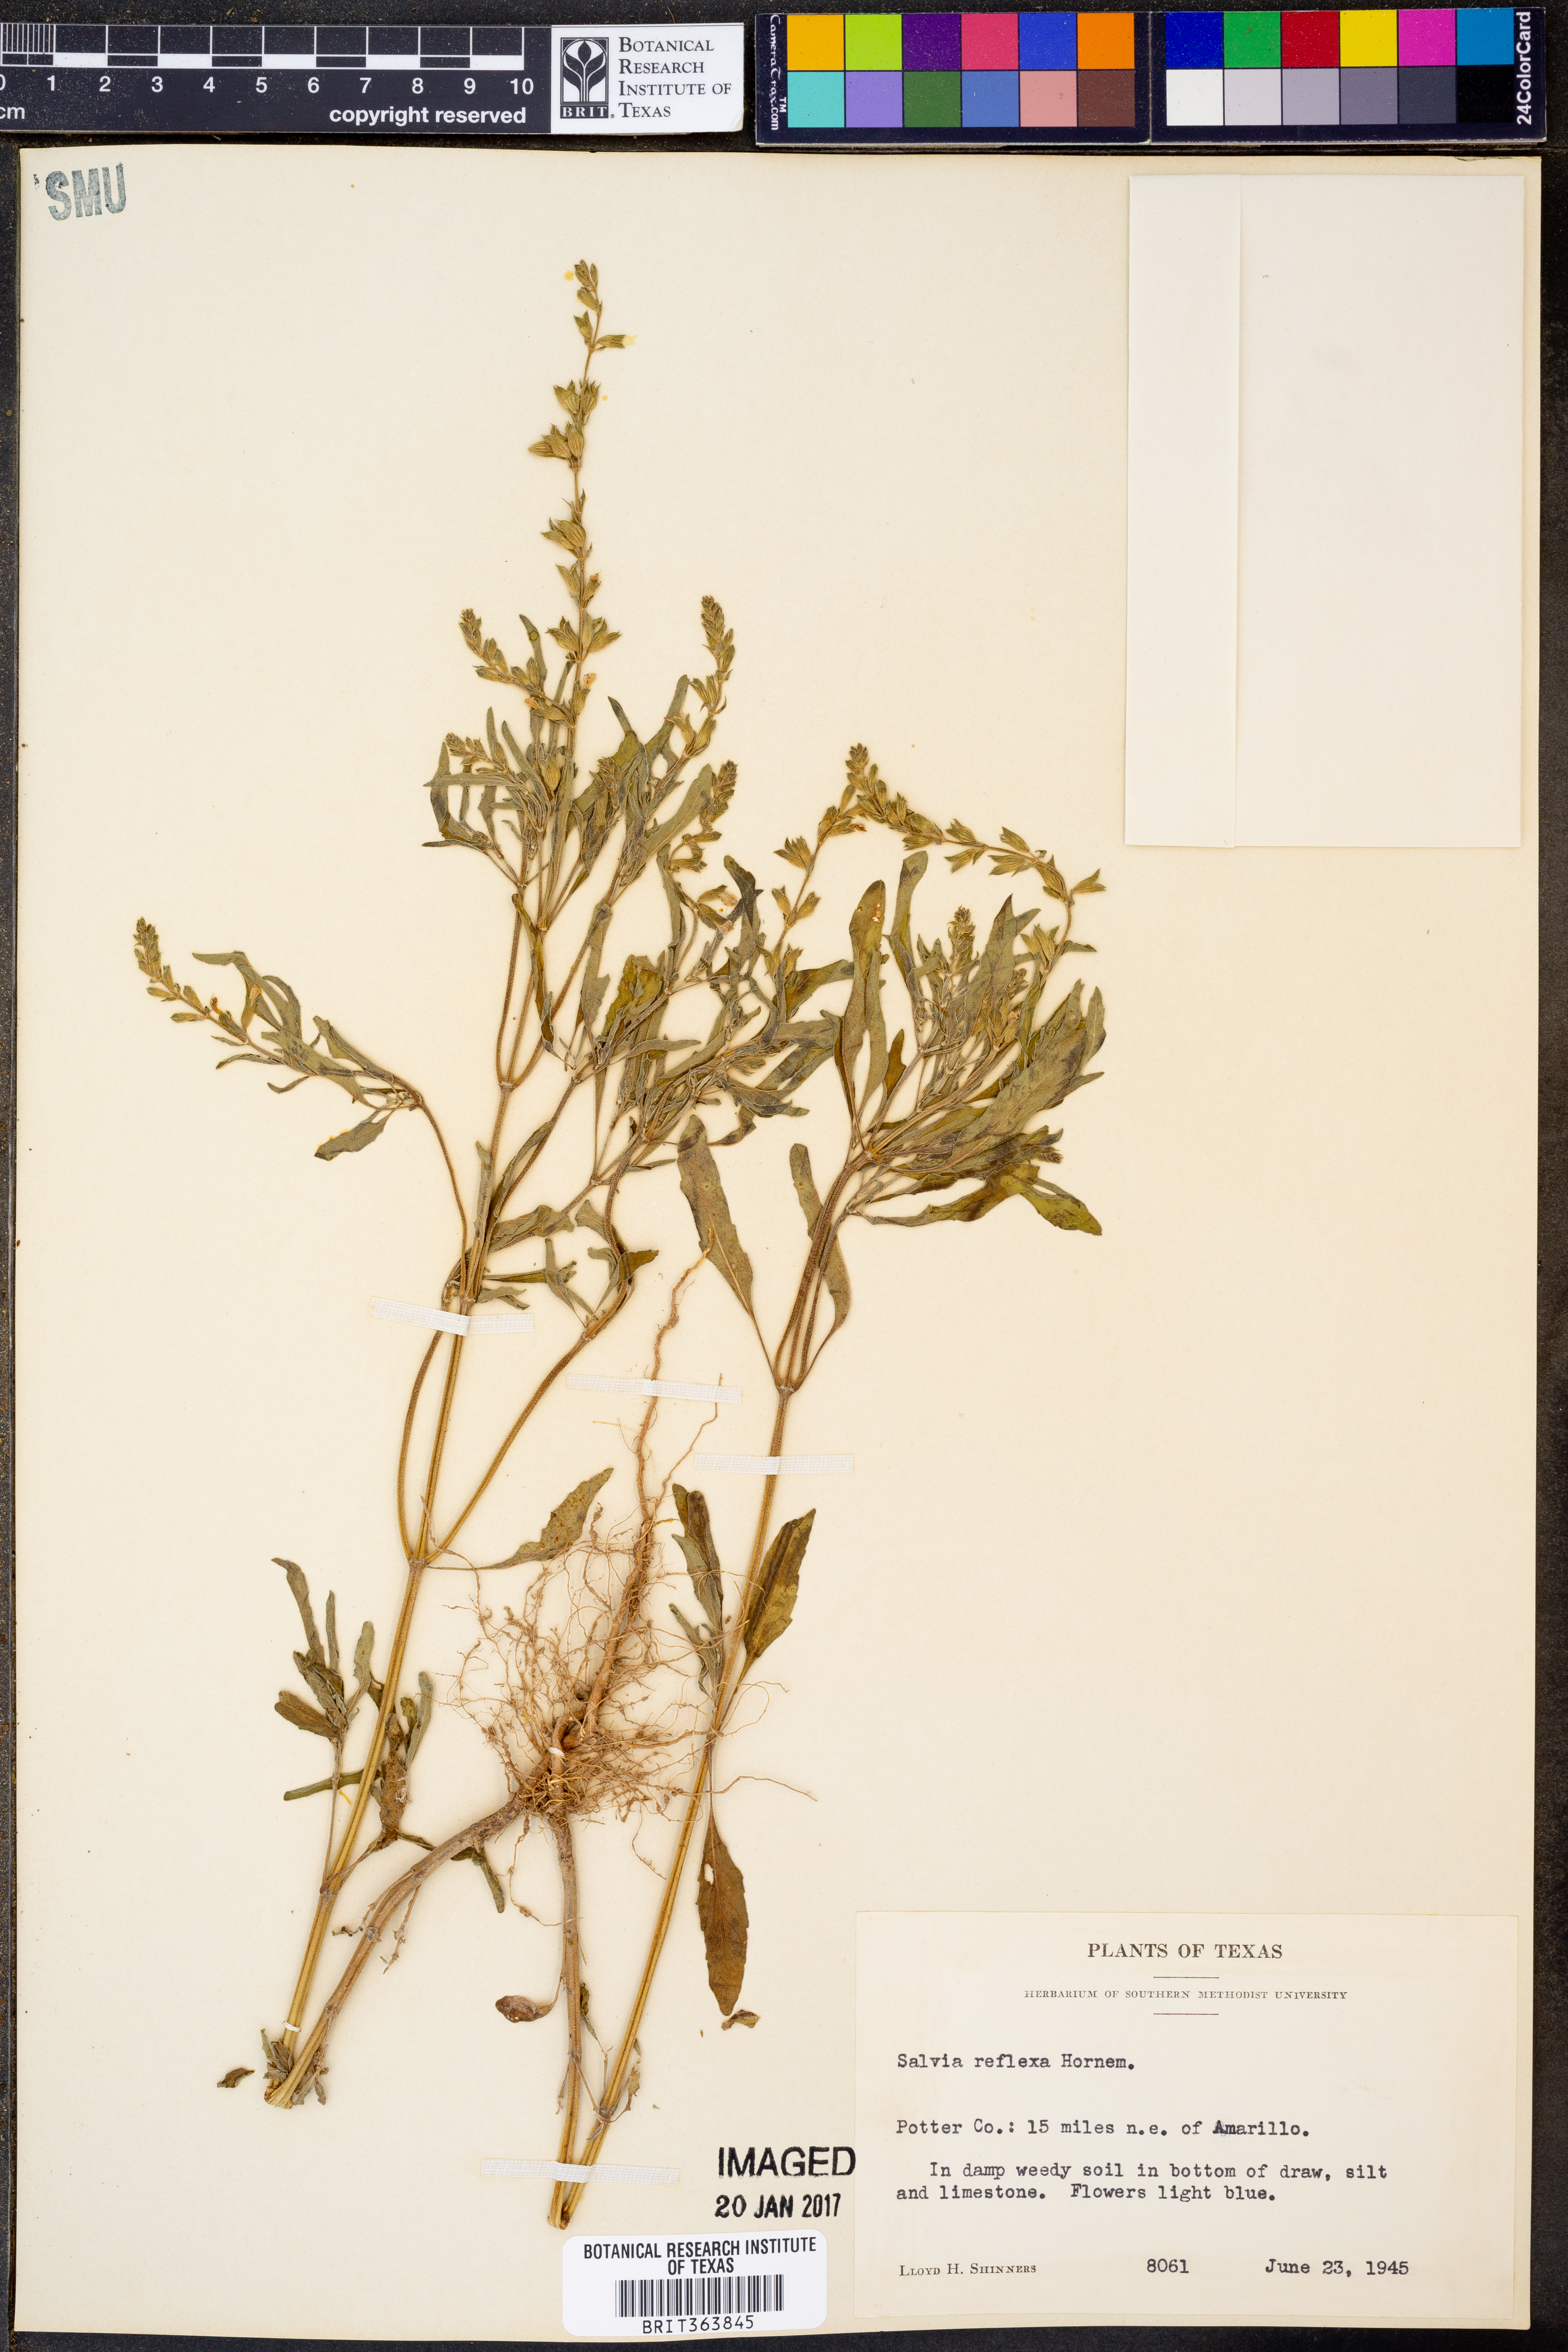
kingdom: Plantae
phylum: Tracheophyta
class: Magnoliopsida
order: Lamiales
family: Lamiaceae
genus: Salvia
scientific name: Salvia reflexa
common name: Mintweed
